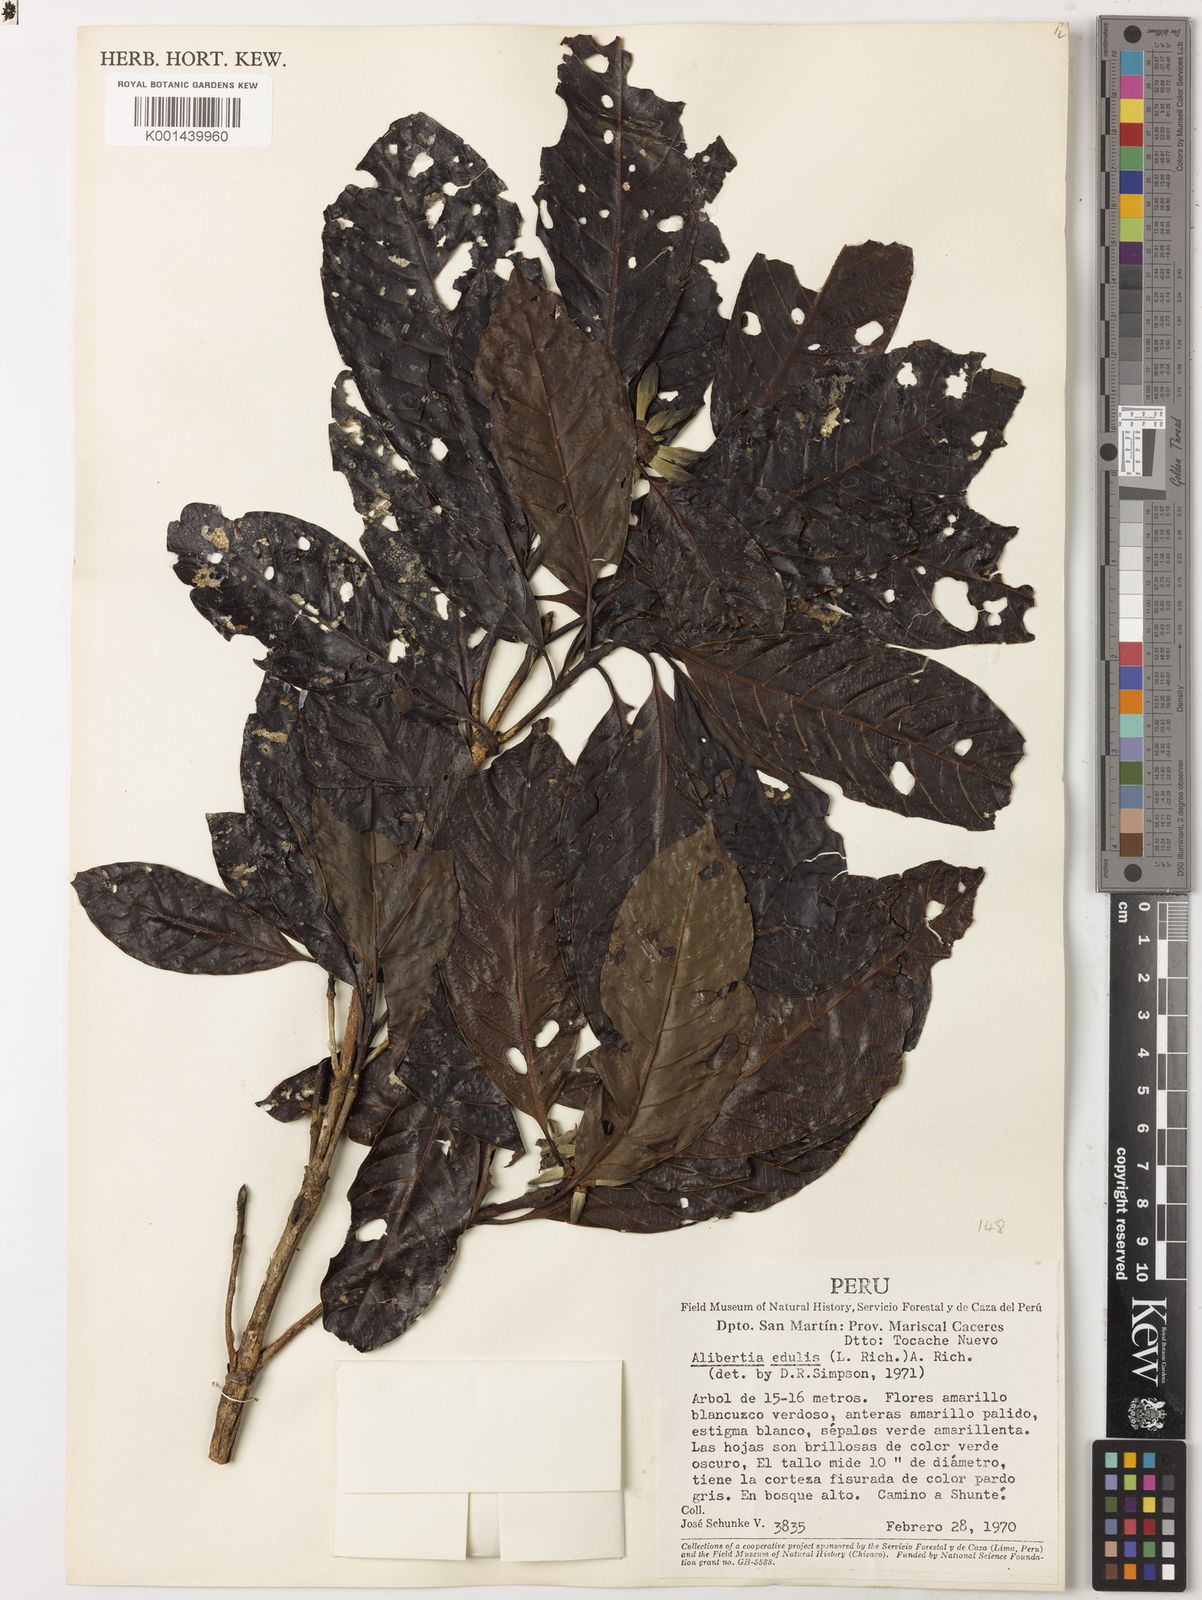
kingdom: Plantae
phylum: Tracheophyta
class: Magnoliopsida
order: Gentianales
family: Rubiaceae
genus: Alibertia
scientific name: Alibertia edulis
